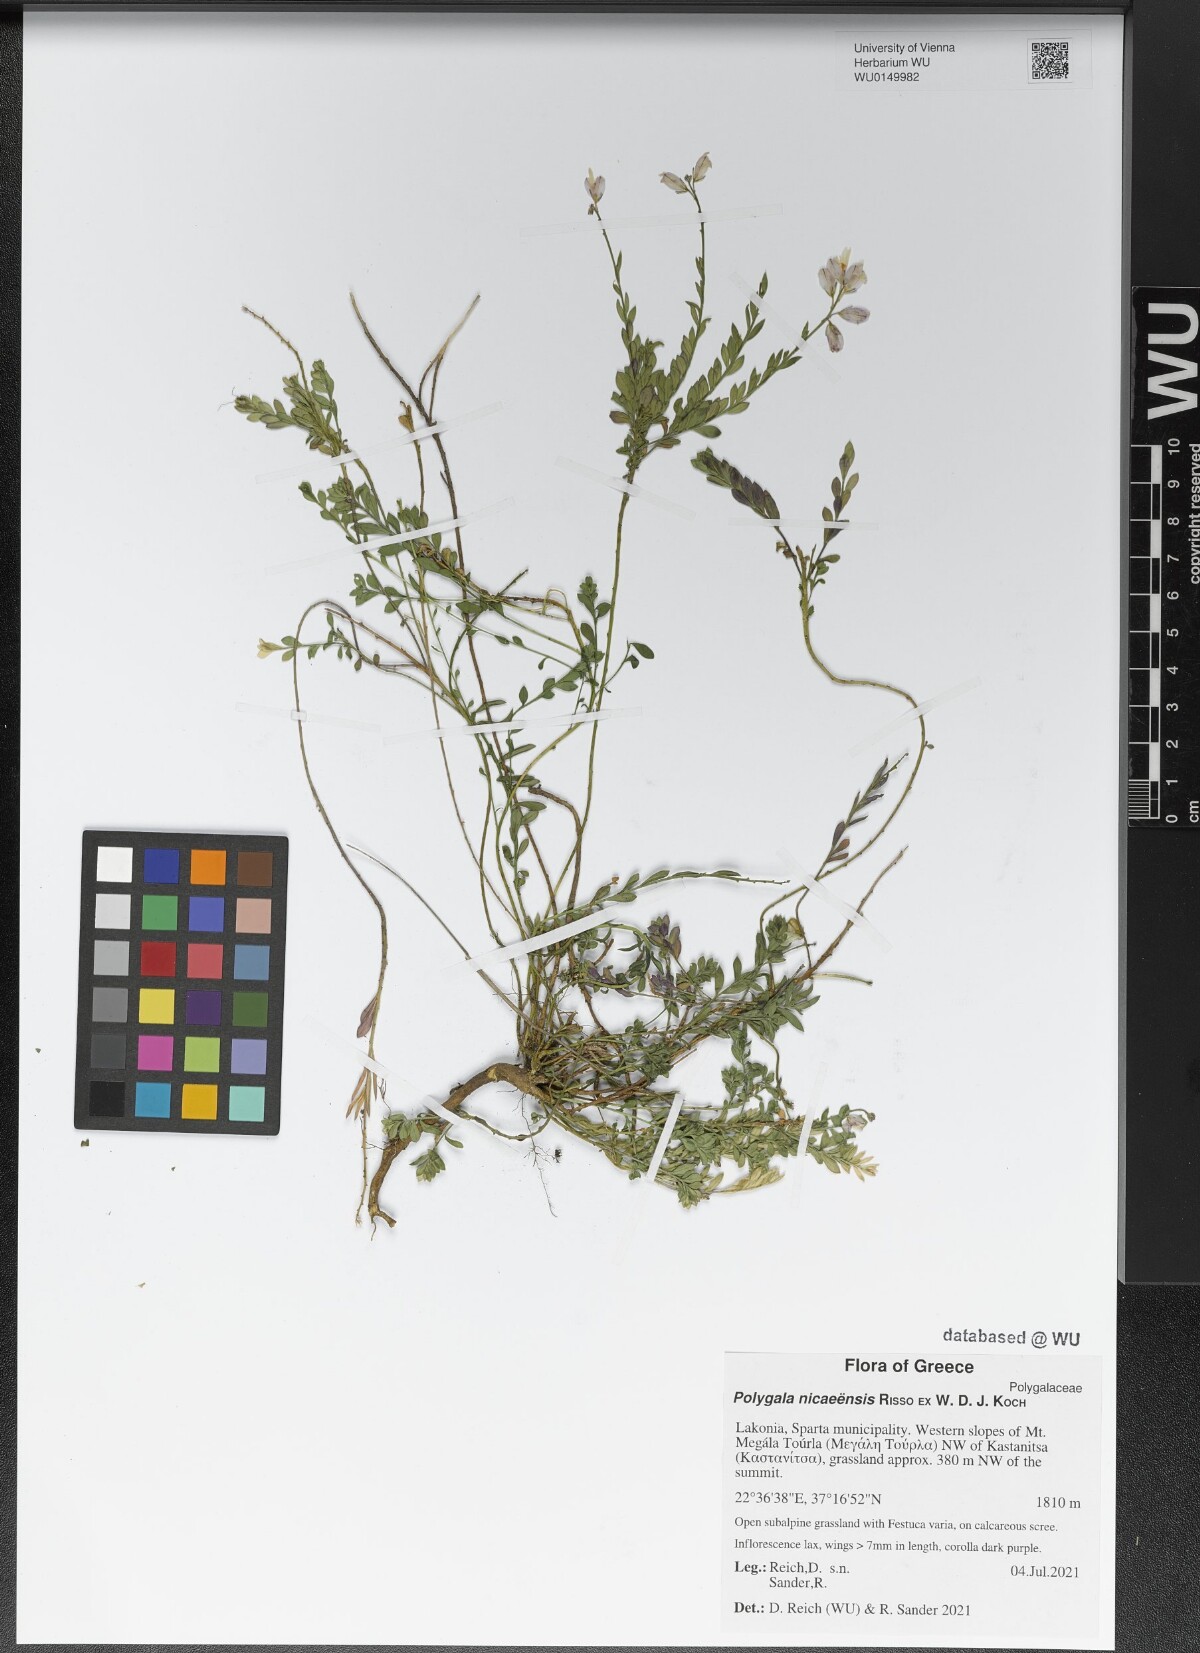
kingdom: Plantae
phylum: Tracheophyta
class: Magnoliopsida
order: Fabales
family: Polygalaceae
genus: Polygala
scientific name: Polygala nicaeensis
